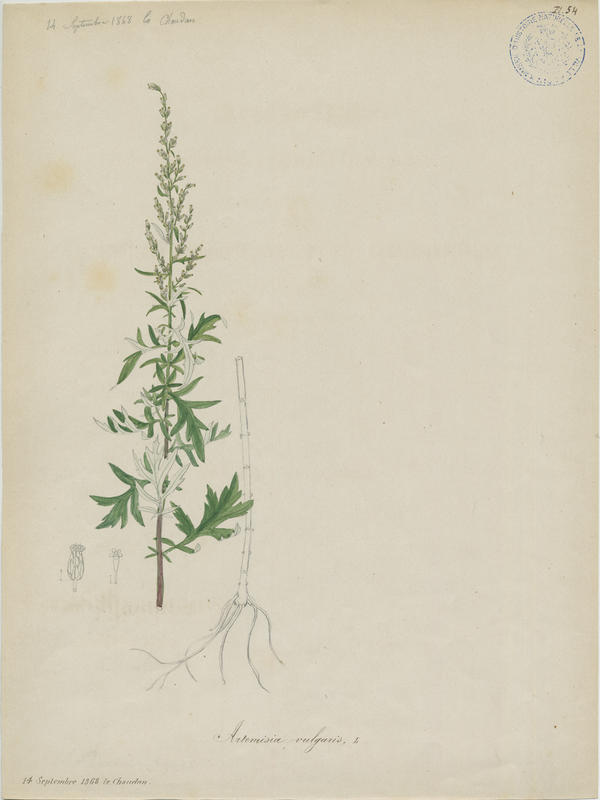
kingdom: Plantae
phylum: Tracheophyta
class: Magnoliopsida
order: Asterales
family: Asteraceae
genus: Artemisia
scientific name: Artemisia vulgaris
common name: Mugwort
